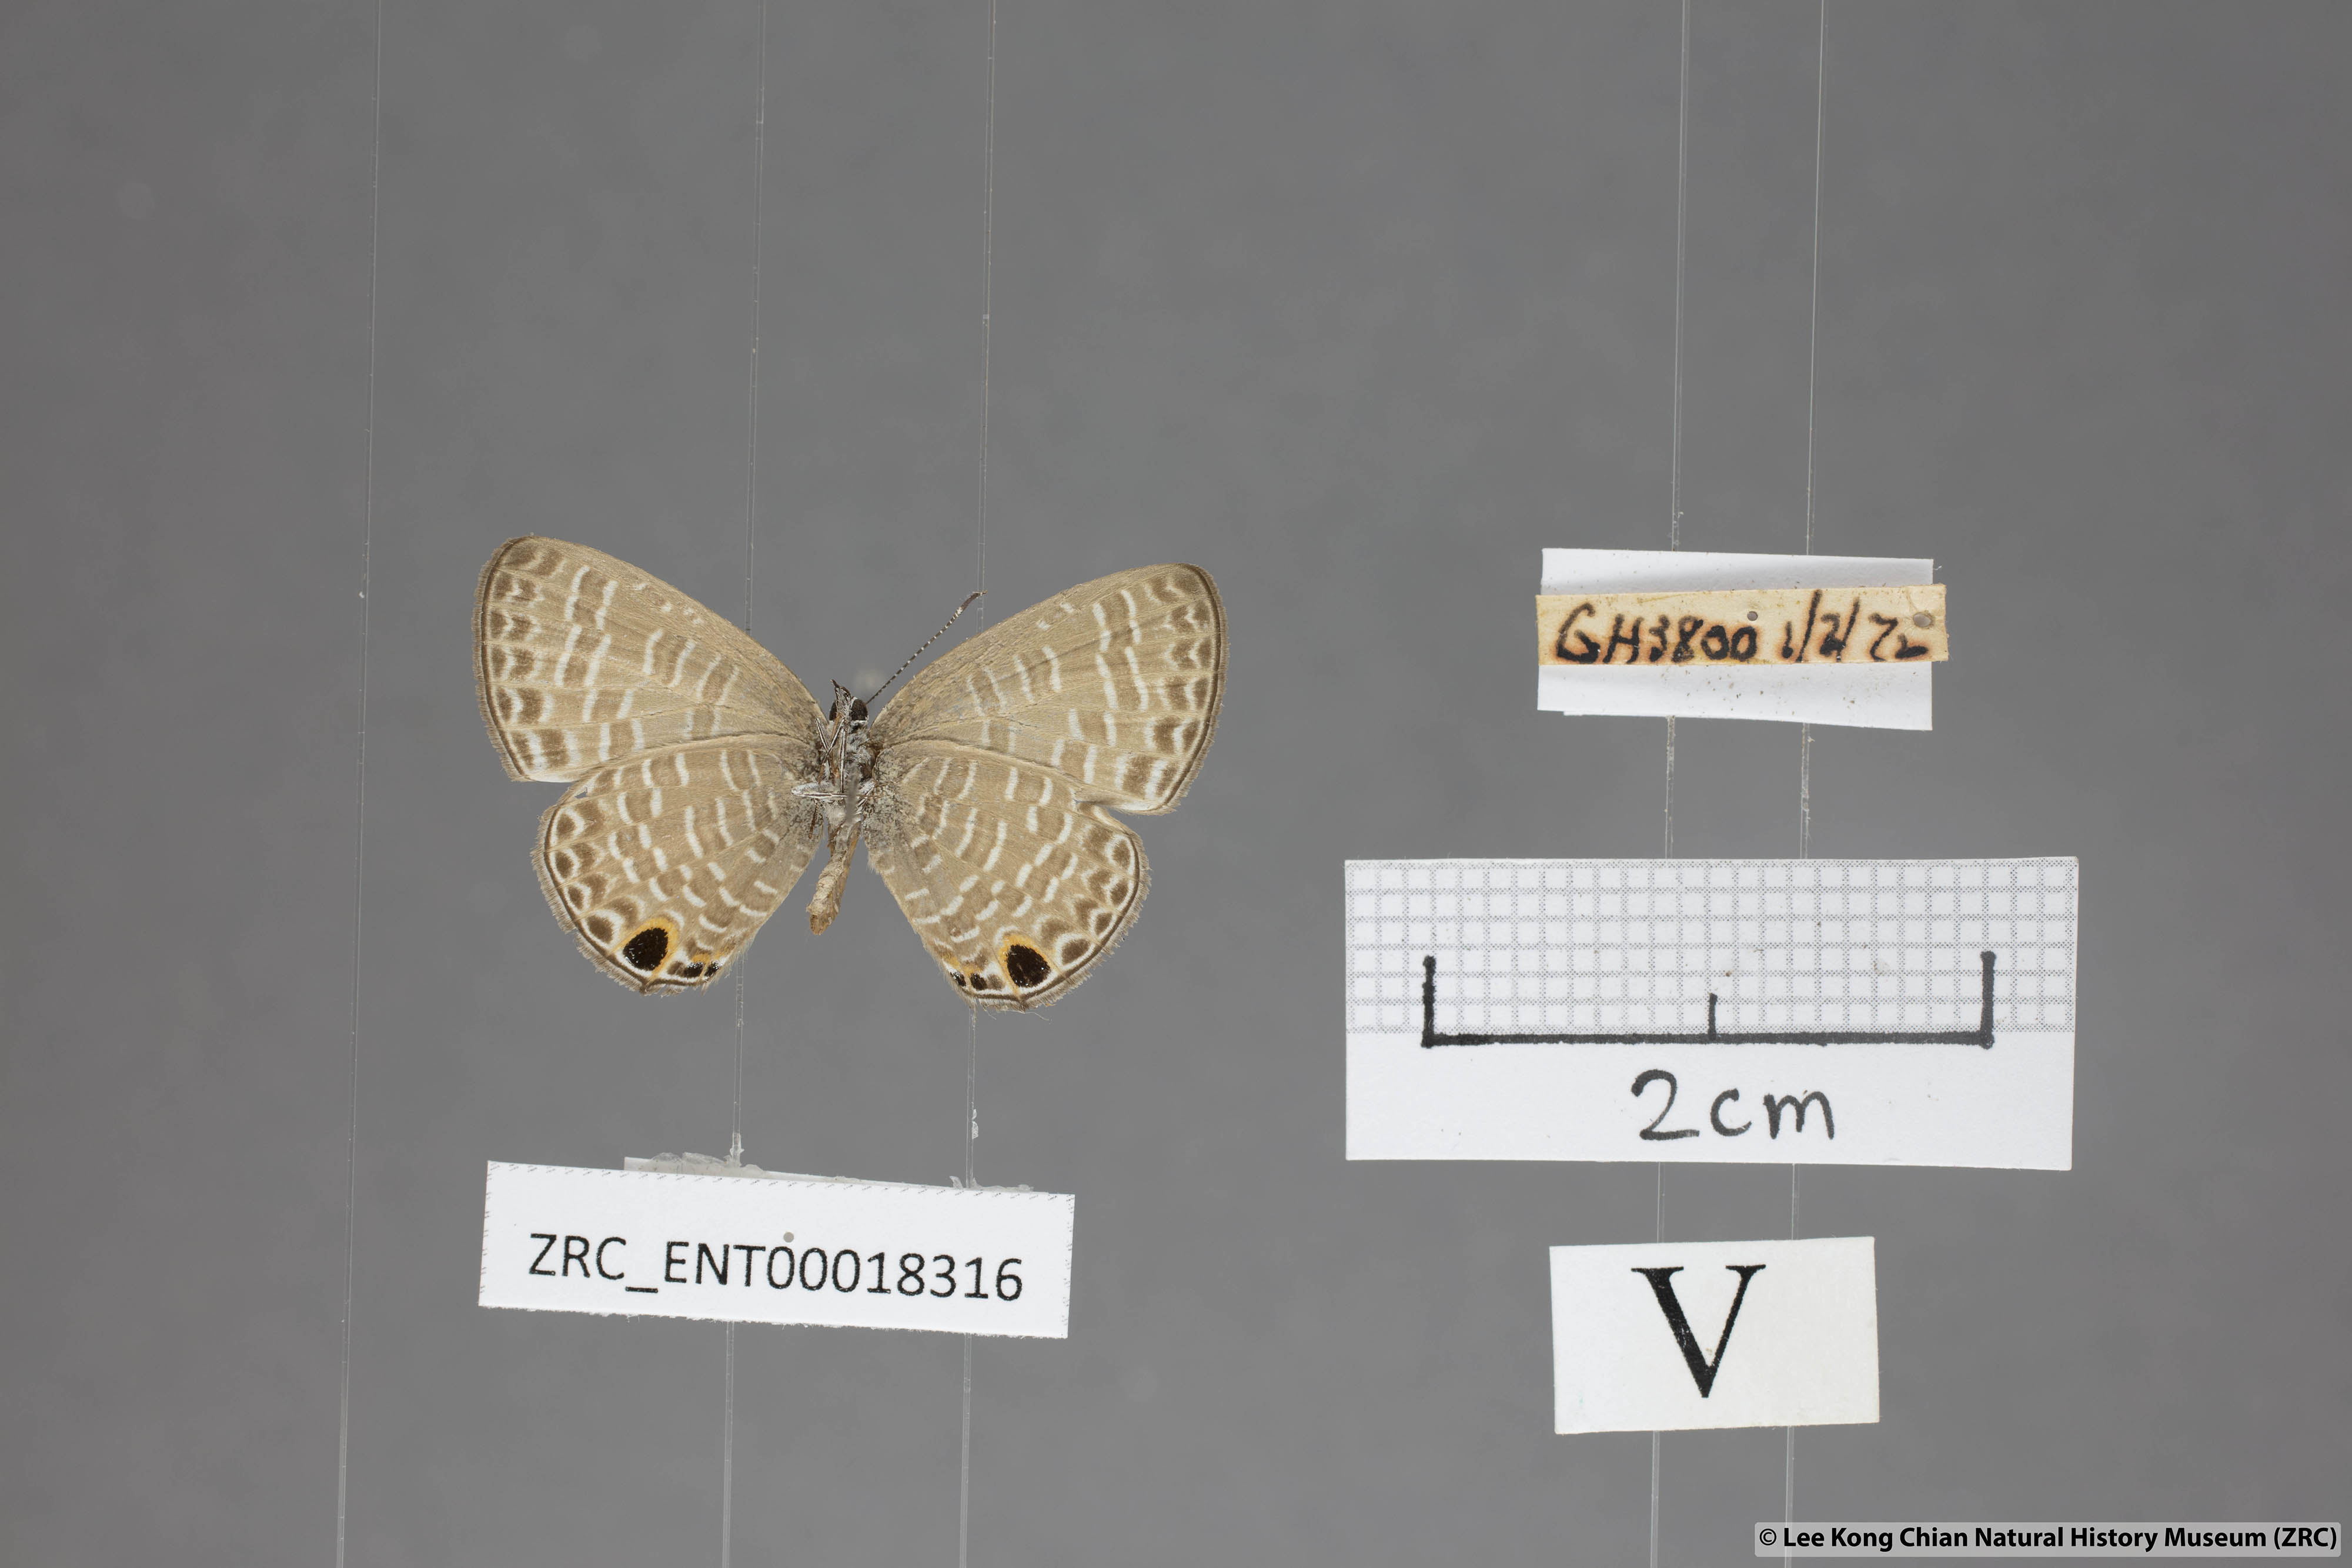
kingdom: Animalia
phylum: Arthropoda
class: Insecta
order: Lepidoptera
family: Lycaenidae
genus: Nacaduba
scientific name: Nacaduba beroe
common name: Opaque sixline blue
